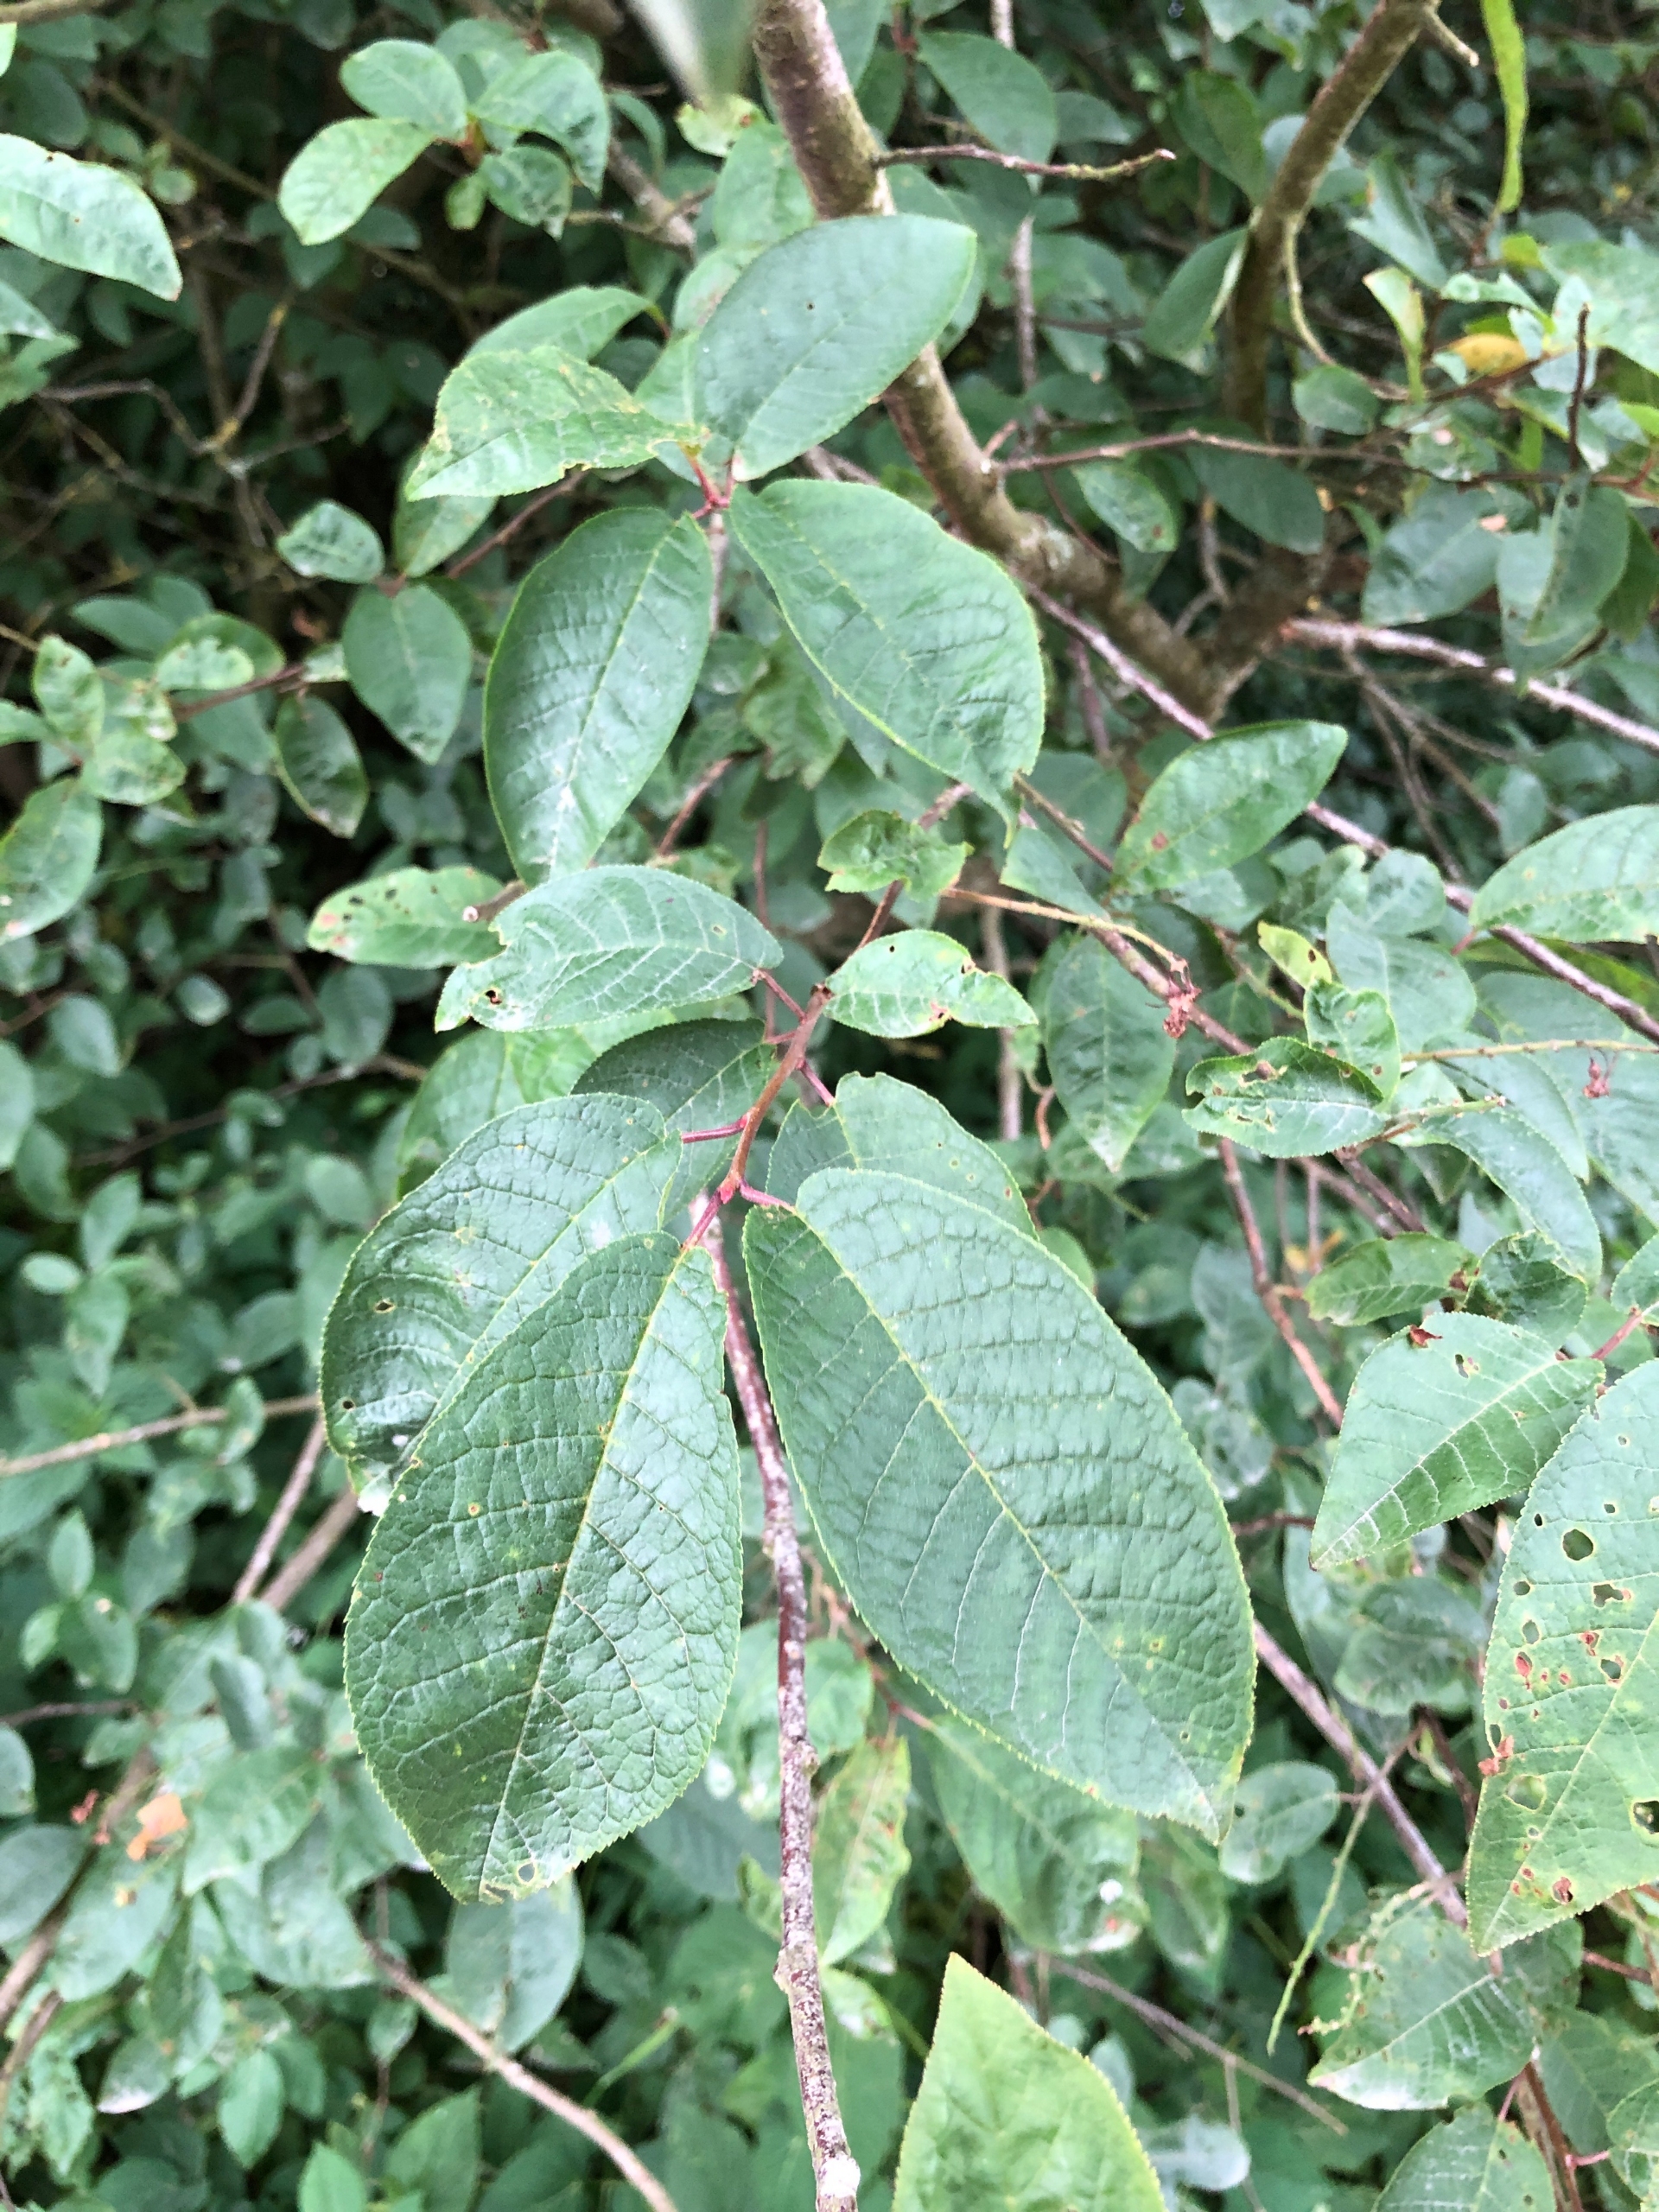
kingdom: Plantae
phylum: Tracheophyta
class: Magnoliopsida
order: Rosales
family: Rosaceae
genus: Prunus
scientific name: Prunus padus
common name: Almindelig hæg
